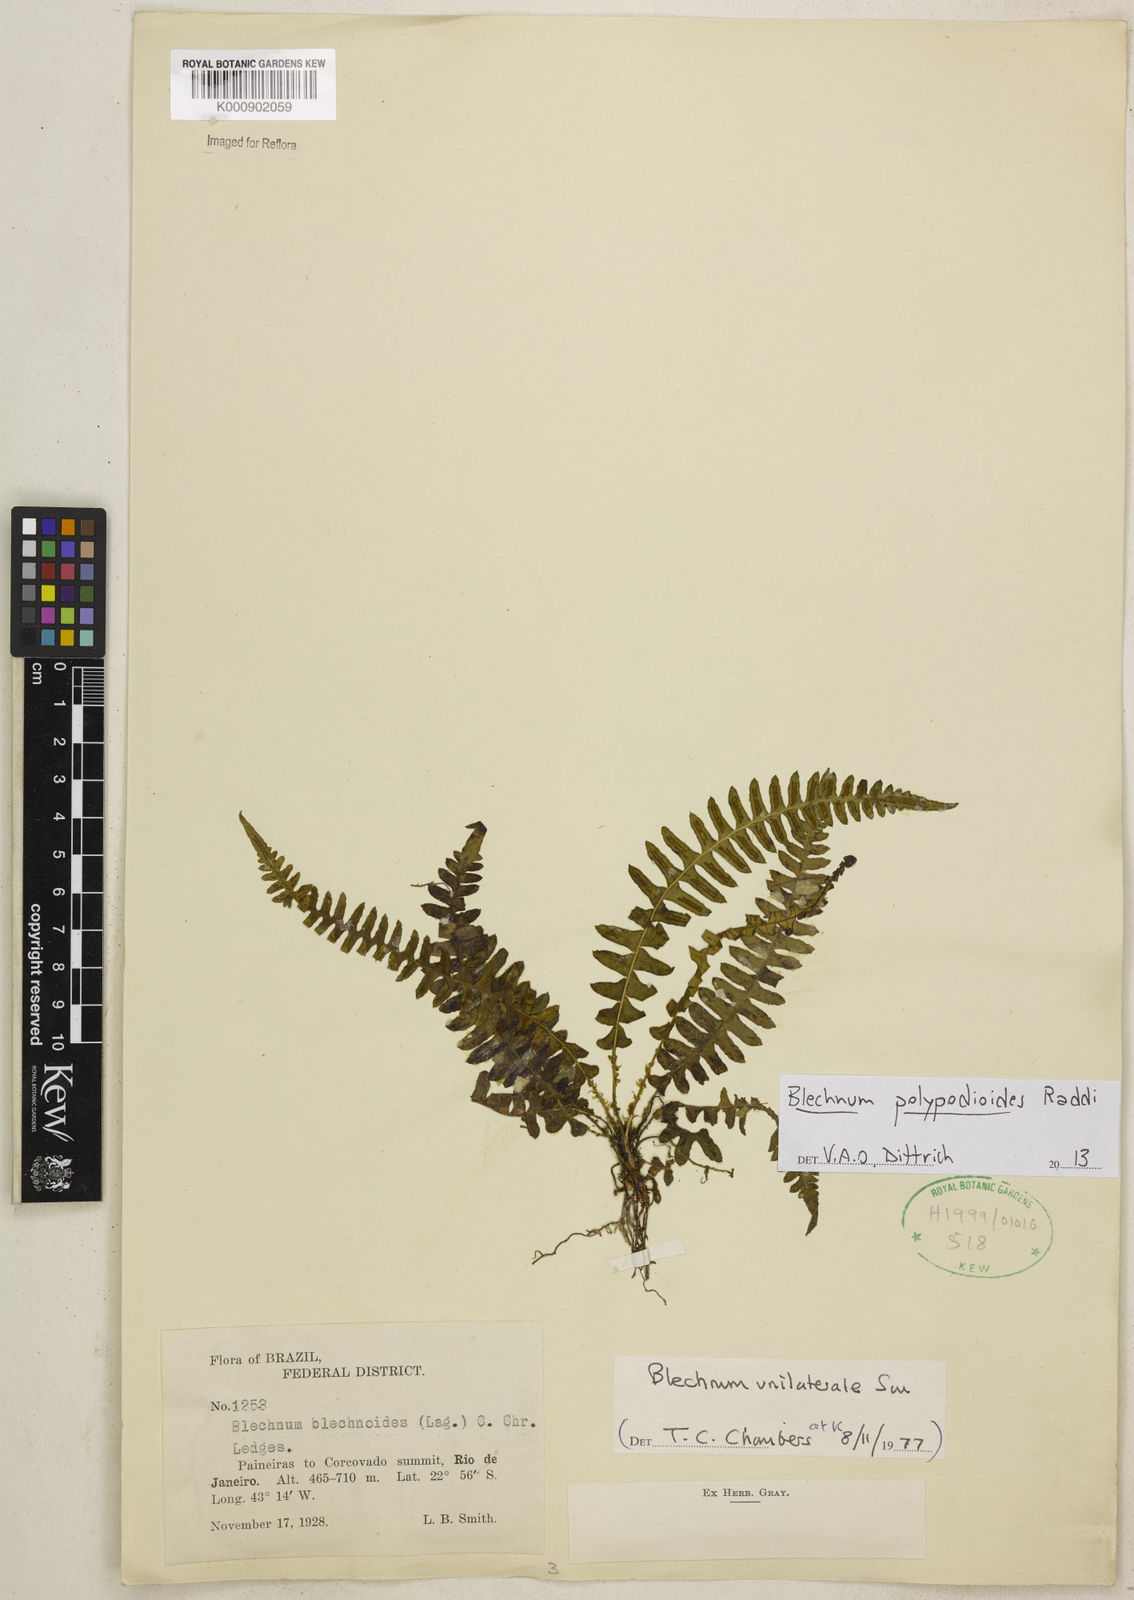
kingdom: Plantae
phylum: Tracheophyta
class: Polypodiopsida
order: Polypodiales
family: Blechnaceae
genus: Blechnum
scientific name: Blechnum polypodioides
